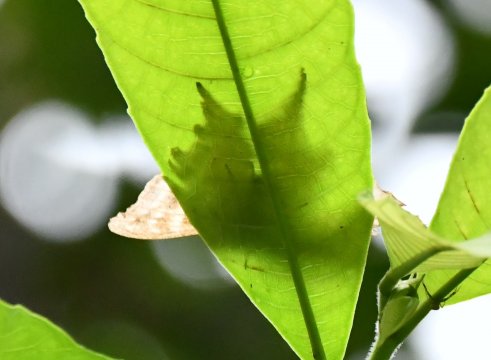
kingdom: Animalia
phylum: Arthropoda
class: Insecta
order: Lepidoptera
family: Nymphalidae
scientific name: Nymphalidae
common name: Brushfoots
